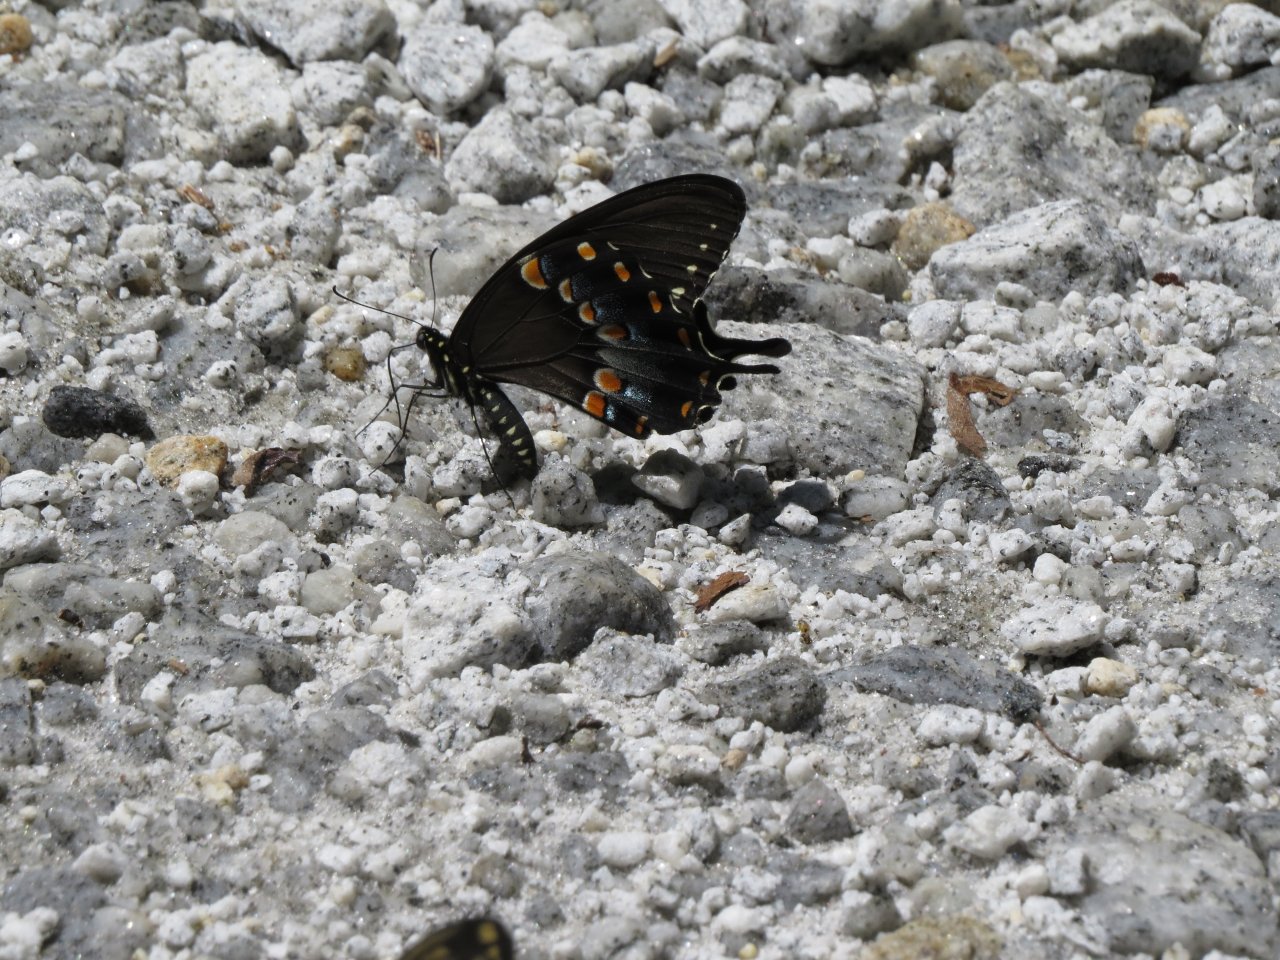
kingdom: Animalia
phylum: Arthropoda
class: Insecta
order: Lepidoptera
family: Papilionidae
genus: Pterourus
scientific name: Pterourus troilus
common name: Spicebush Swallowtail
